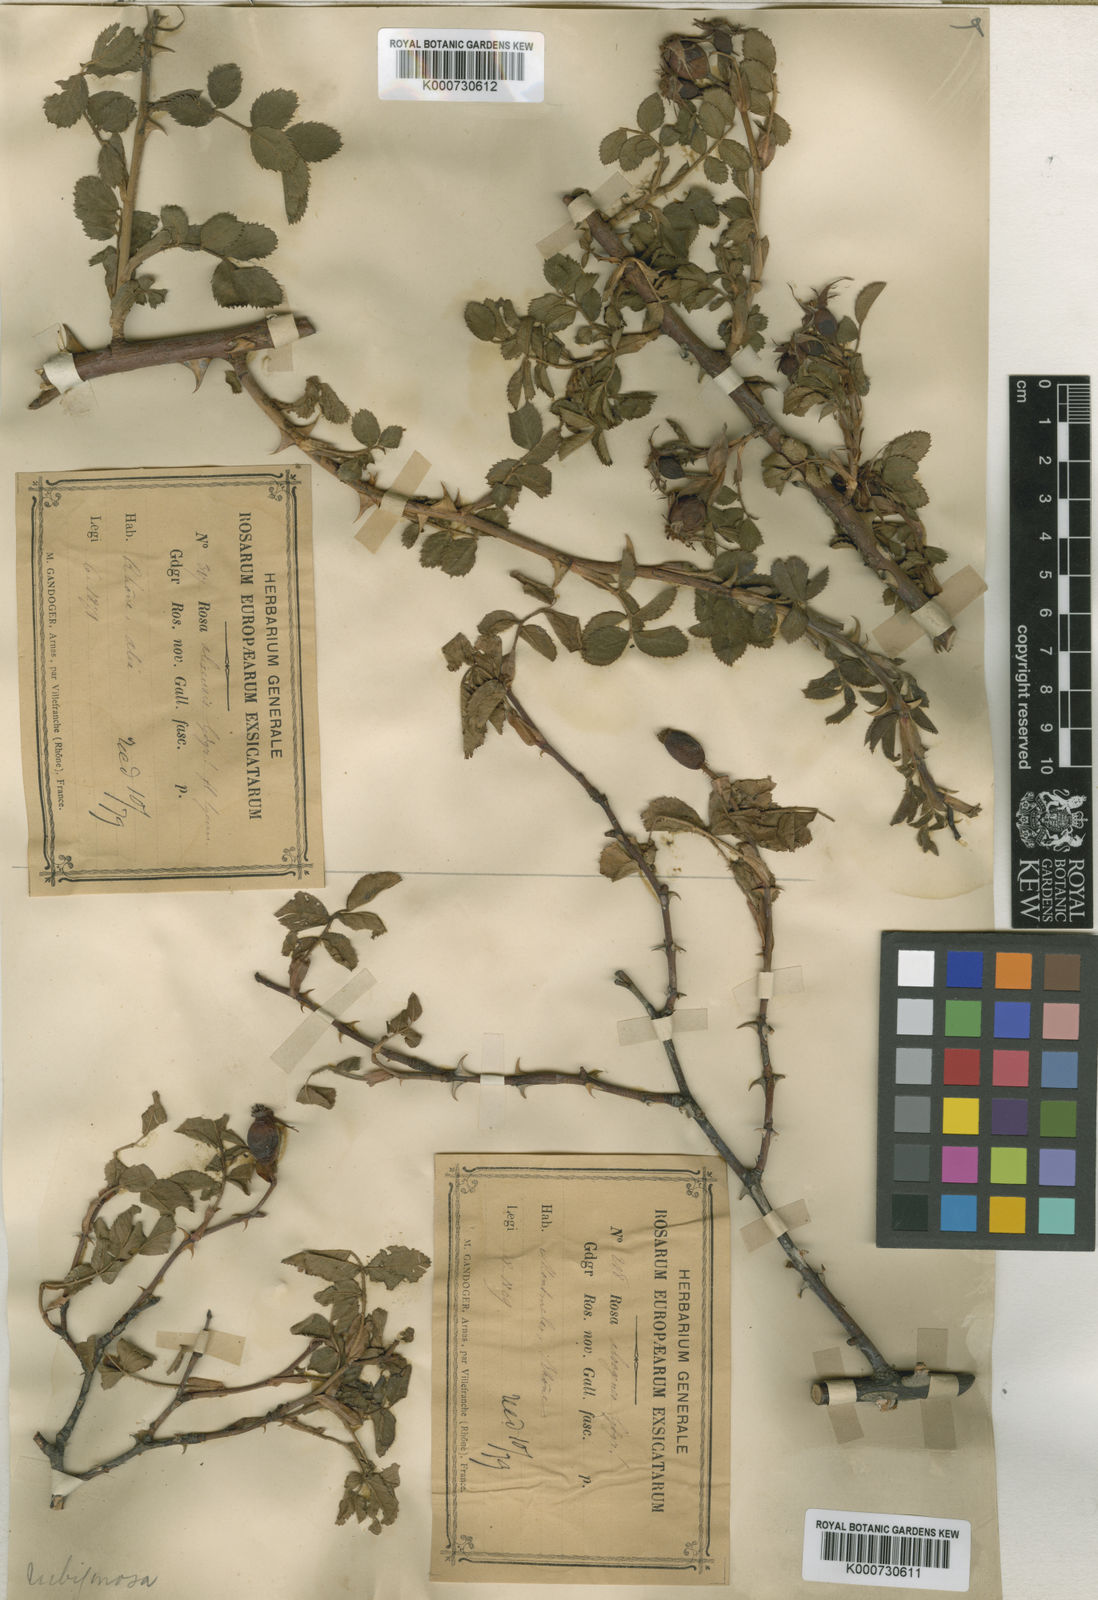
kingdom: Plantae
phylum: Tracheophyta
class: Magnoliopsida
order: Rosales
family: Rosaceae
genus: Rosa
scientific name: Rosa rubiginosa
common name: Sweet-briar
